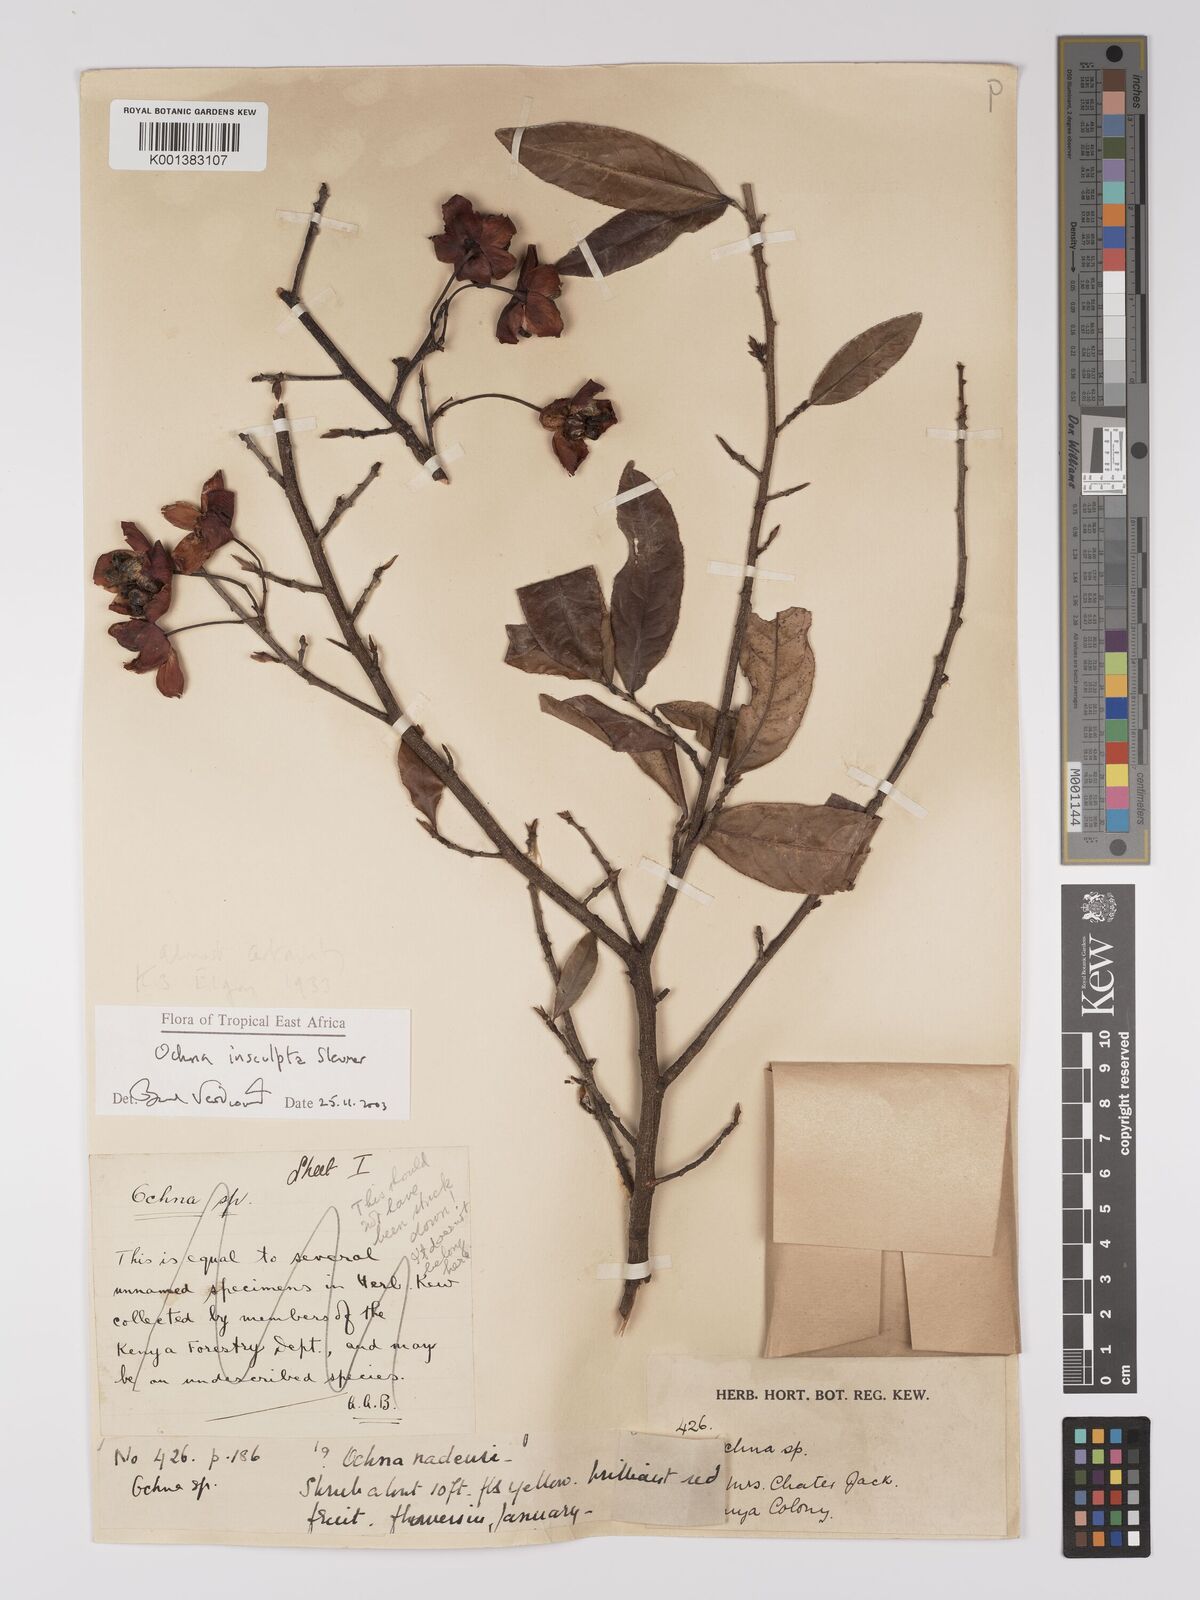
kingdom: Plantae
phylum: Tracheophyta
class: Magnoliopsida
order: Malpighiales
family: Ochnaceae
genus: Ochna
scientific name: Ochna insculpta
